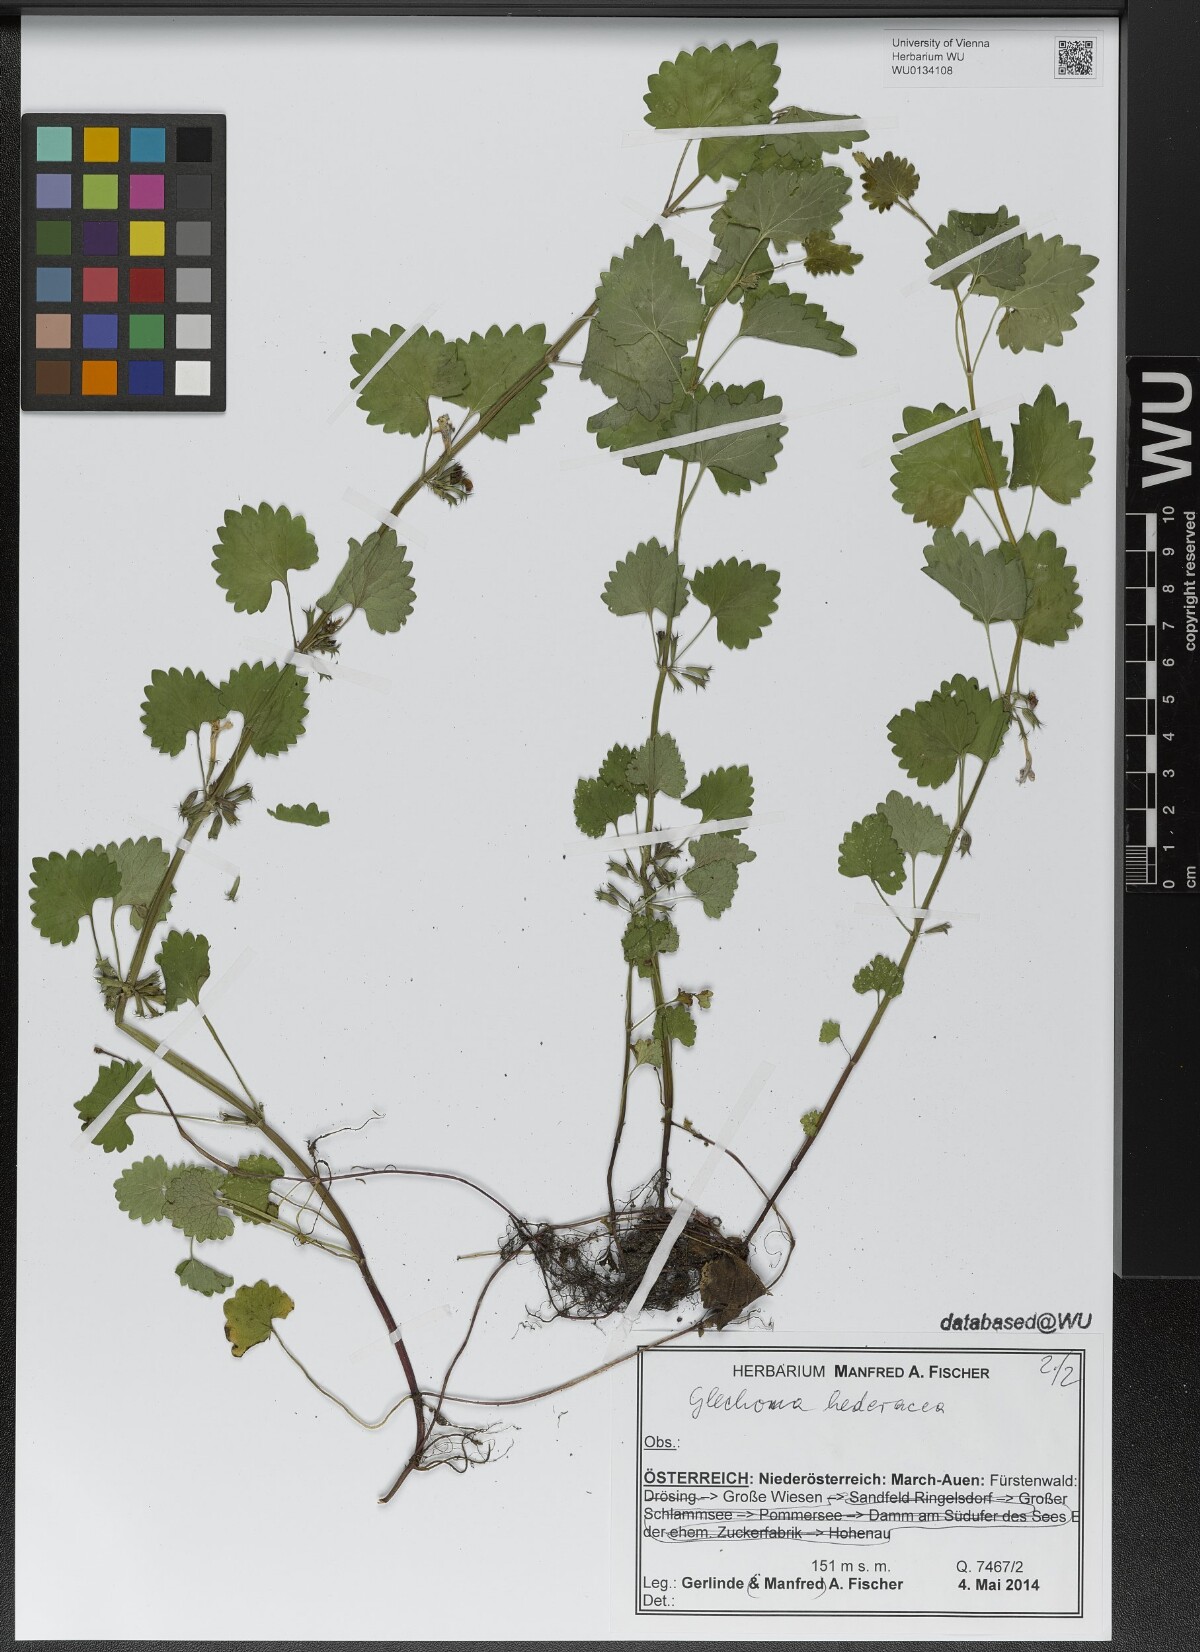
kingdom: Plantae
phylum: Tracheophyta
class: Magnoliopsida
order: Lamiales
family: Lamiaceae
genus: Glechoma
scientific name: Glechoma hederacea
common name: Ground ivy
